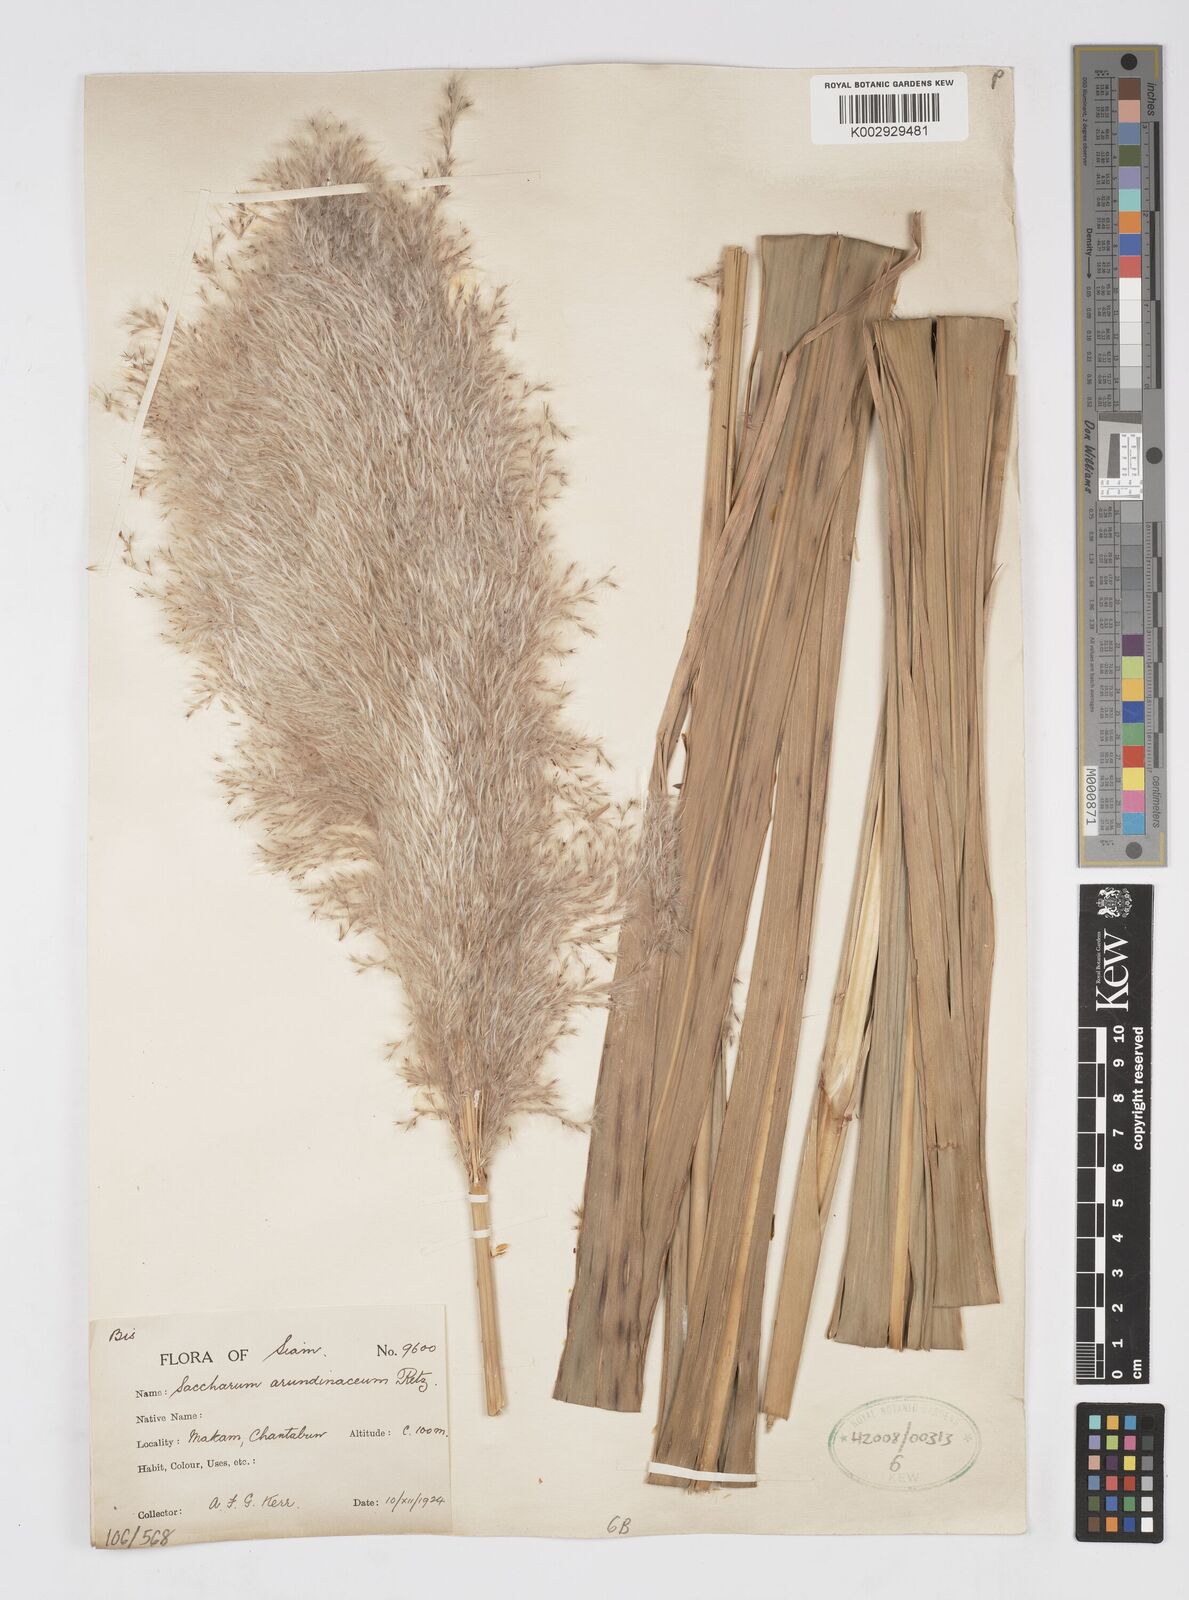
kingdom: Plantae
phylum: Tracheophyta
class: Liliopsida
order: Poales
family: Poaceae
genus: Tripidium
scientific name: Tripidium arundinaceum
